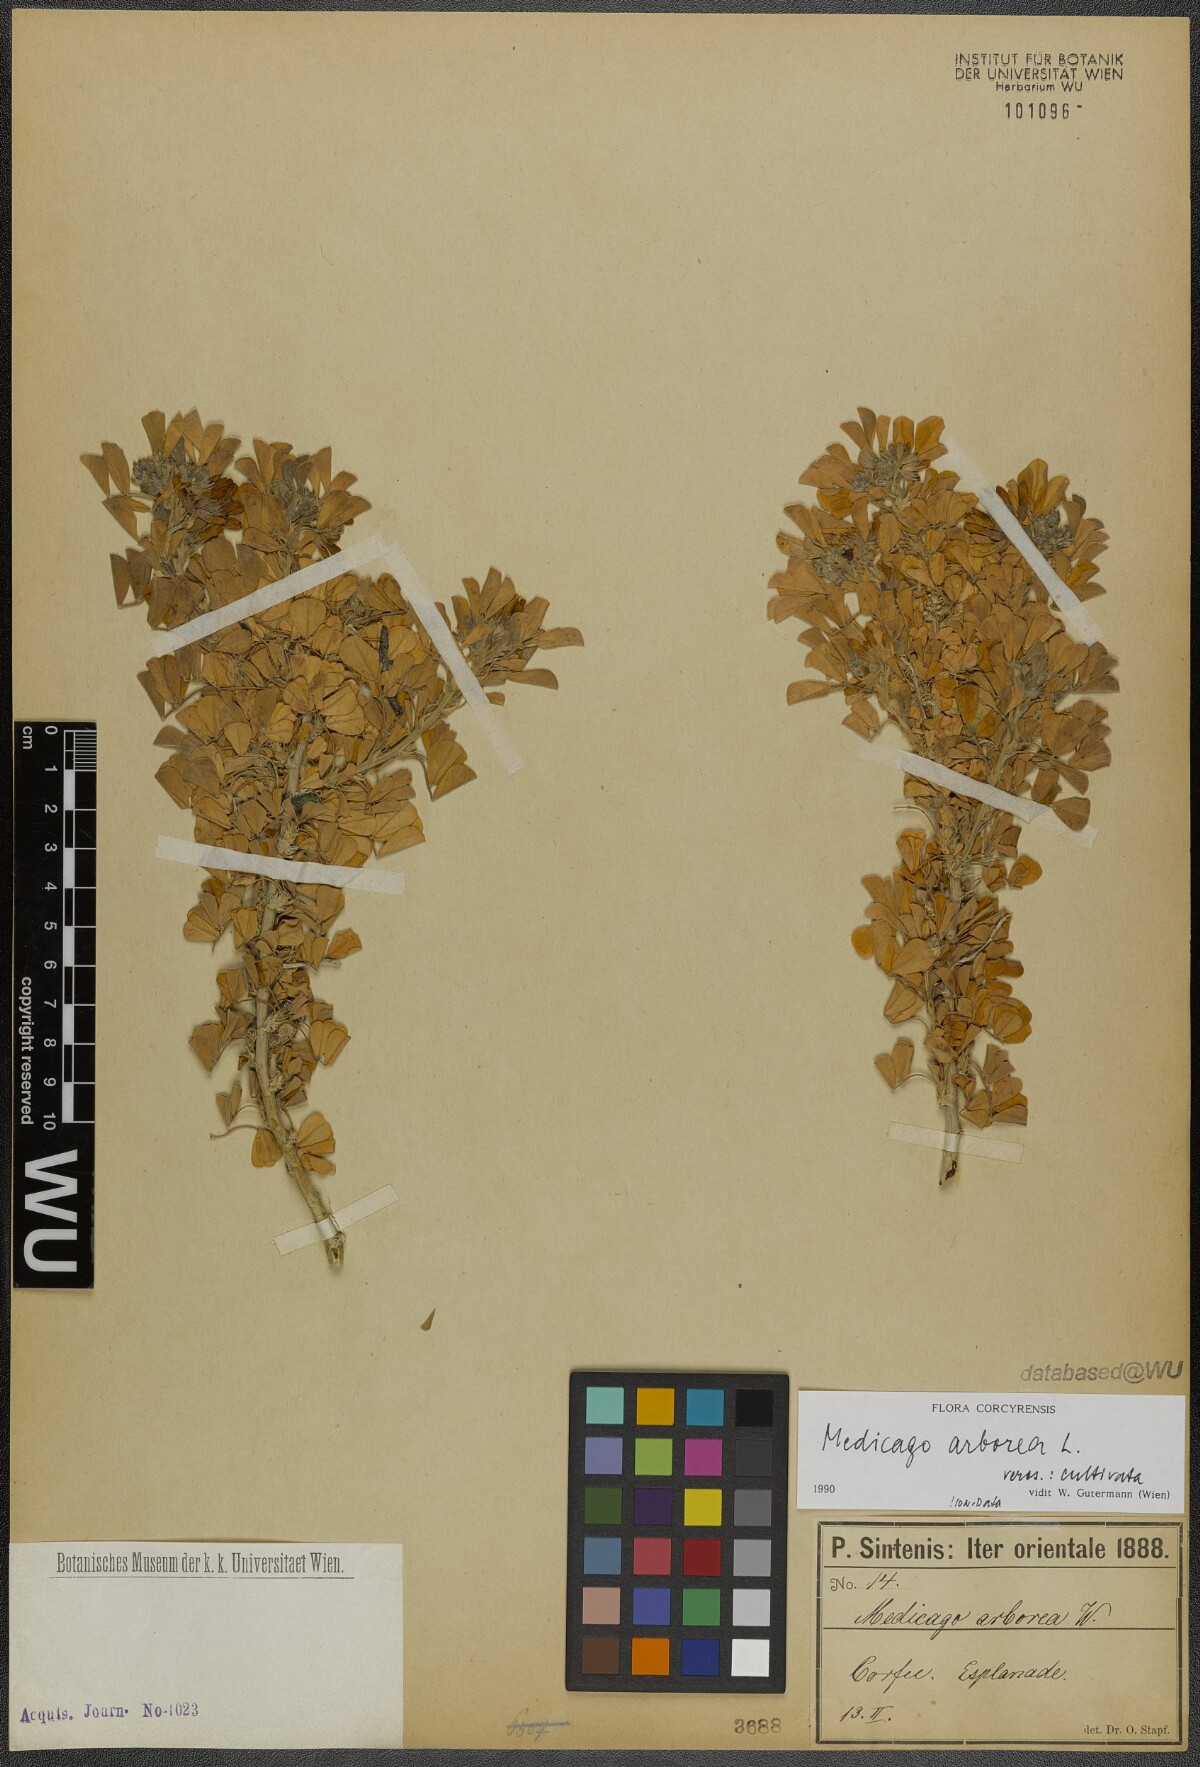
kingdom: Plantae
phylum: Tracheophyta
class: Magnoliopsida
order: Fabales
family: Fabaceae
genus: Medicago
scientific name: Medicago arborea
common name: Moon trefoil
